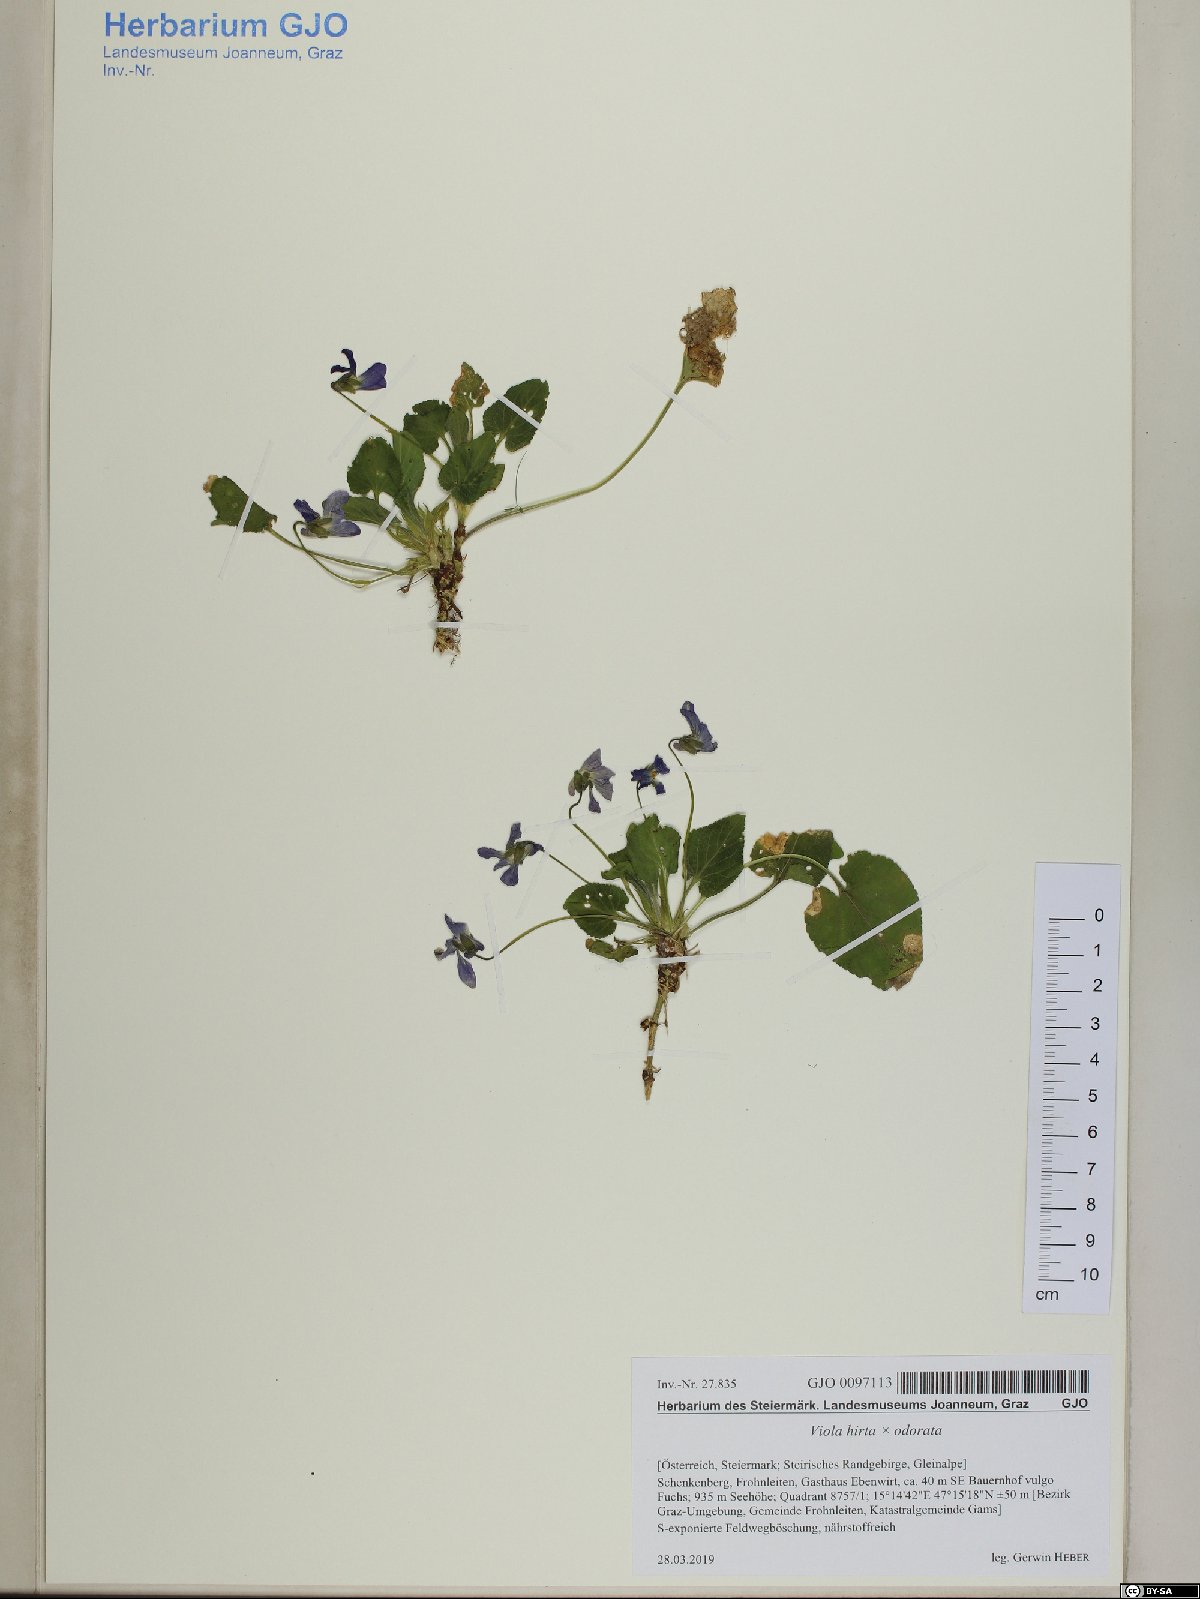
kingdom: Plantae
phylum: Tracheophyta
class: Magnoliopsida
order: Malpighiales
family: Violaceae
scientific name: Violaceae
